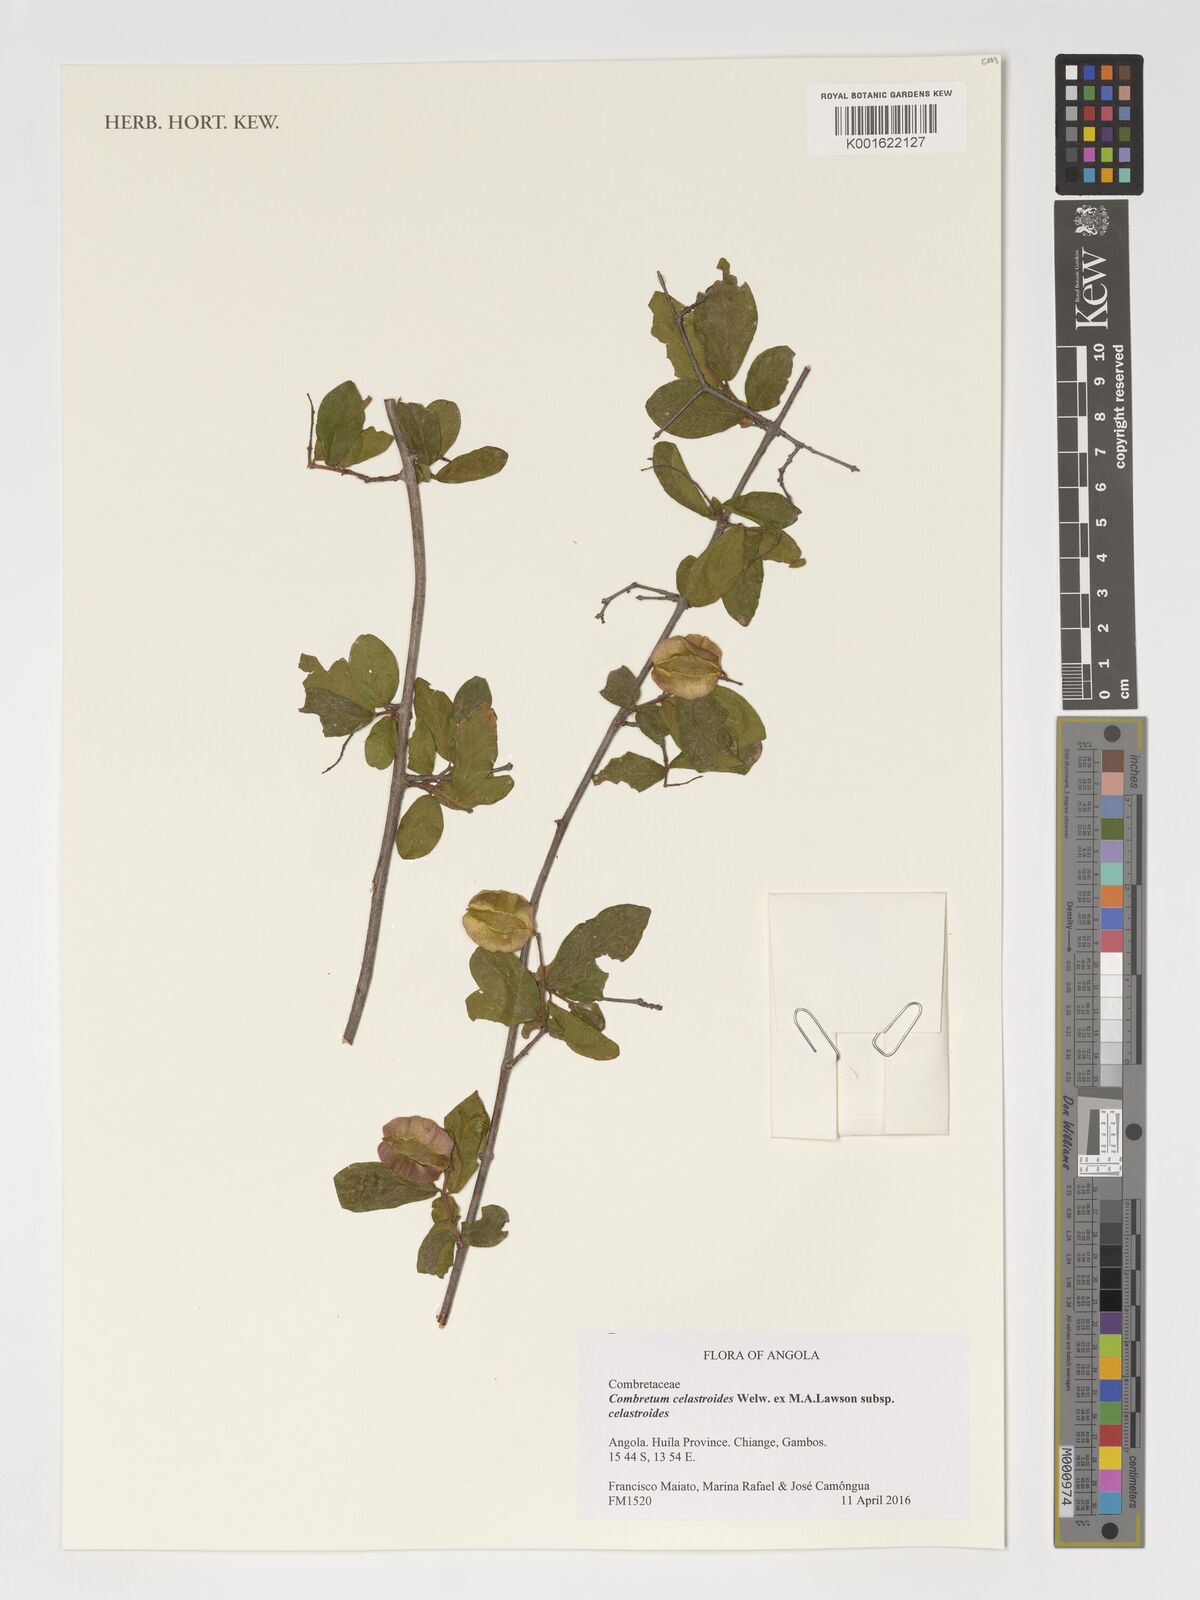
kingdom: Plantae
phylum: Tracheophyta
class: Magnoliopsida
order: Myrtales
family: Combretaceae
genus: Combretum
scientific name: Combretum celastroides
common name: Jesse-bush combretum
